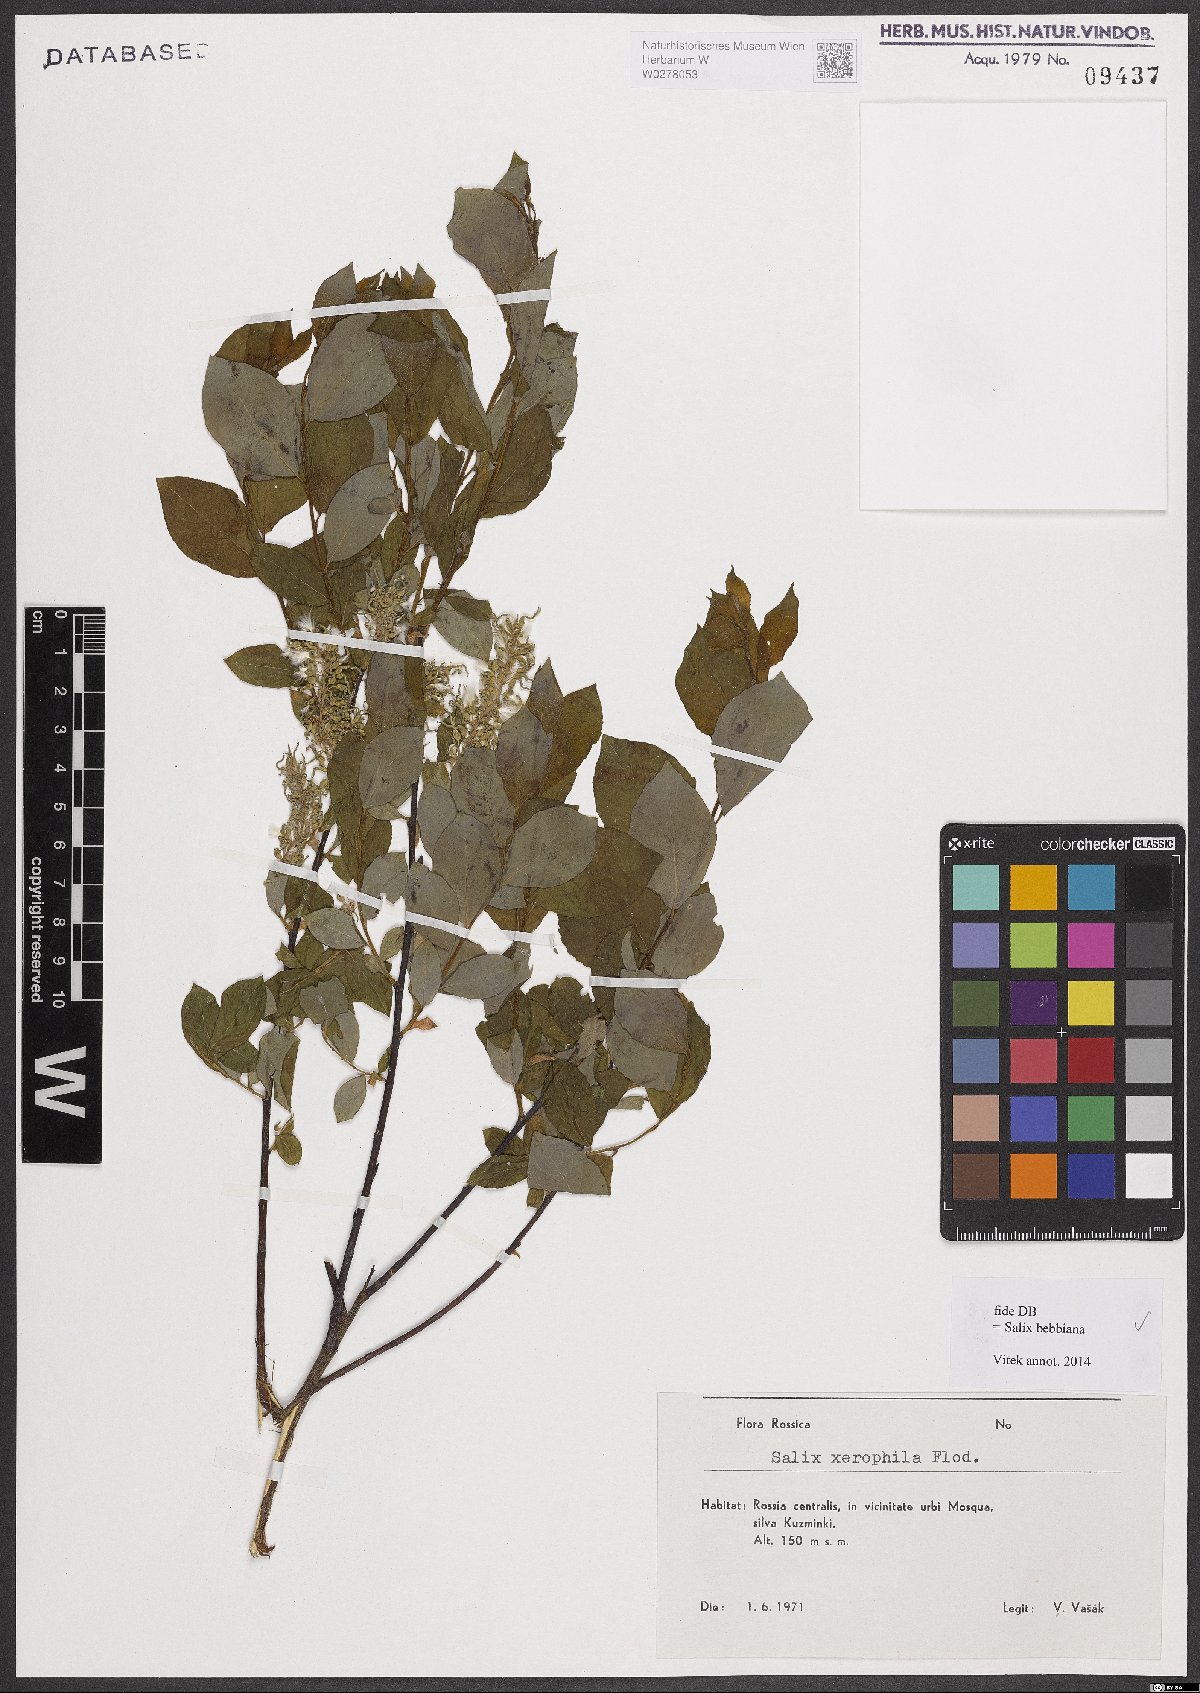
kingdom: Plantae
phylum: Tracheophyta
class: Magnoliopsida
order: Malpighiales
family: Salicaceae
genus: Salix
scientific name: Salix bebbiana
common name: Bebb's willow
